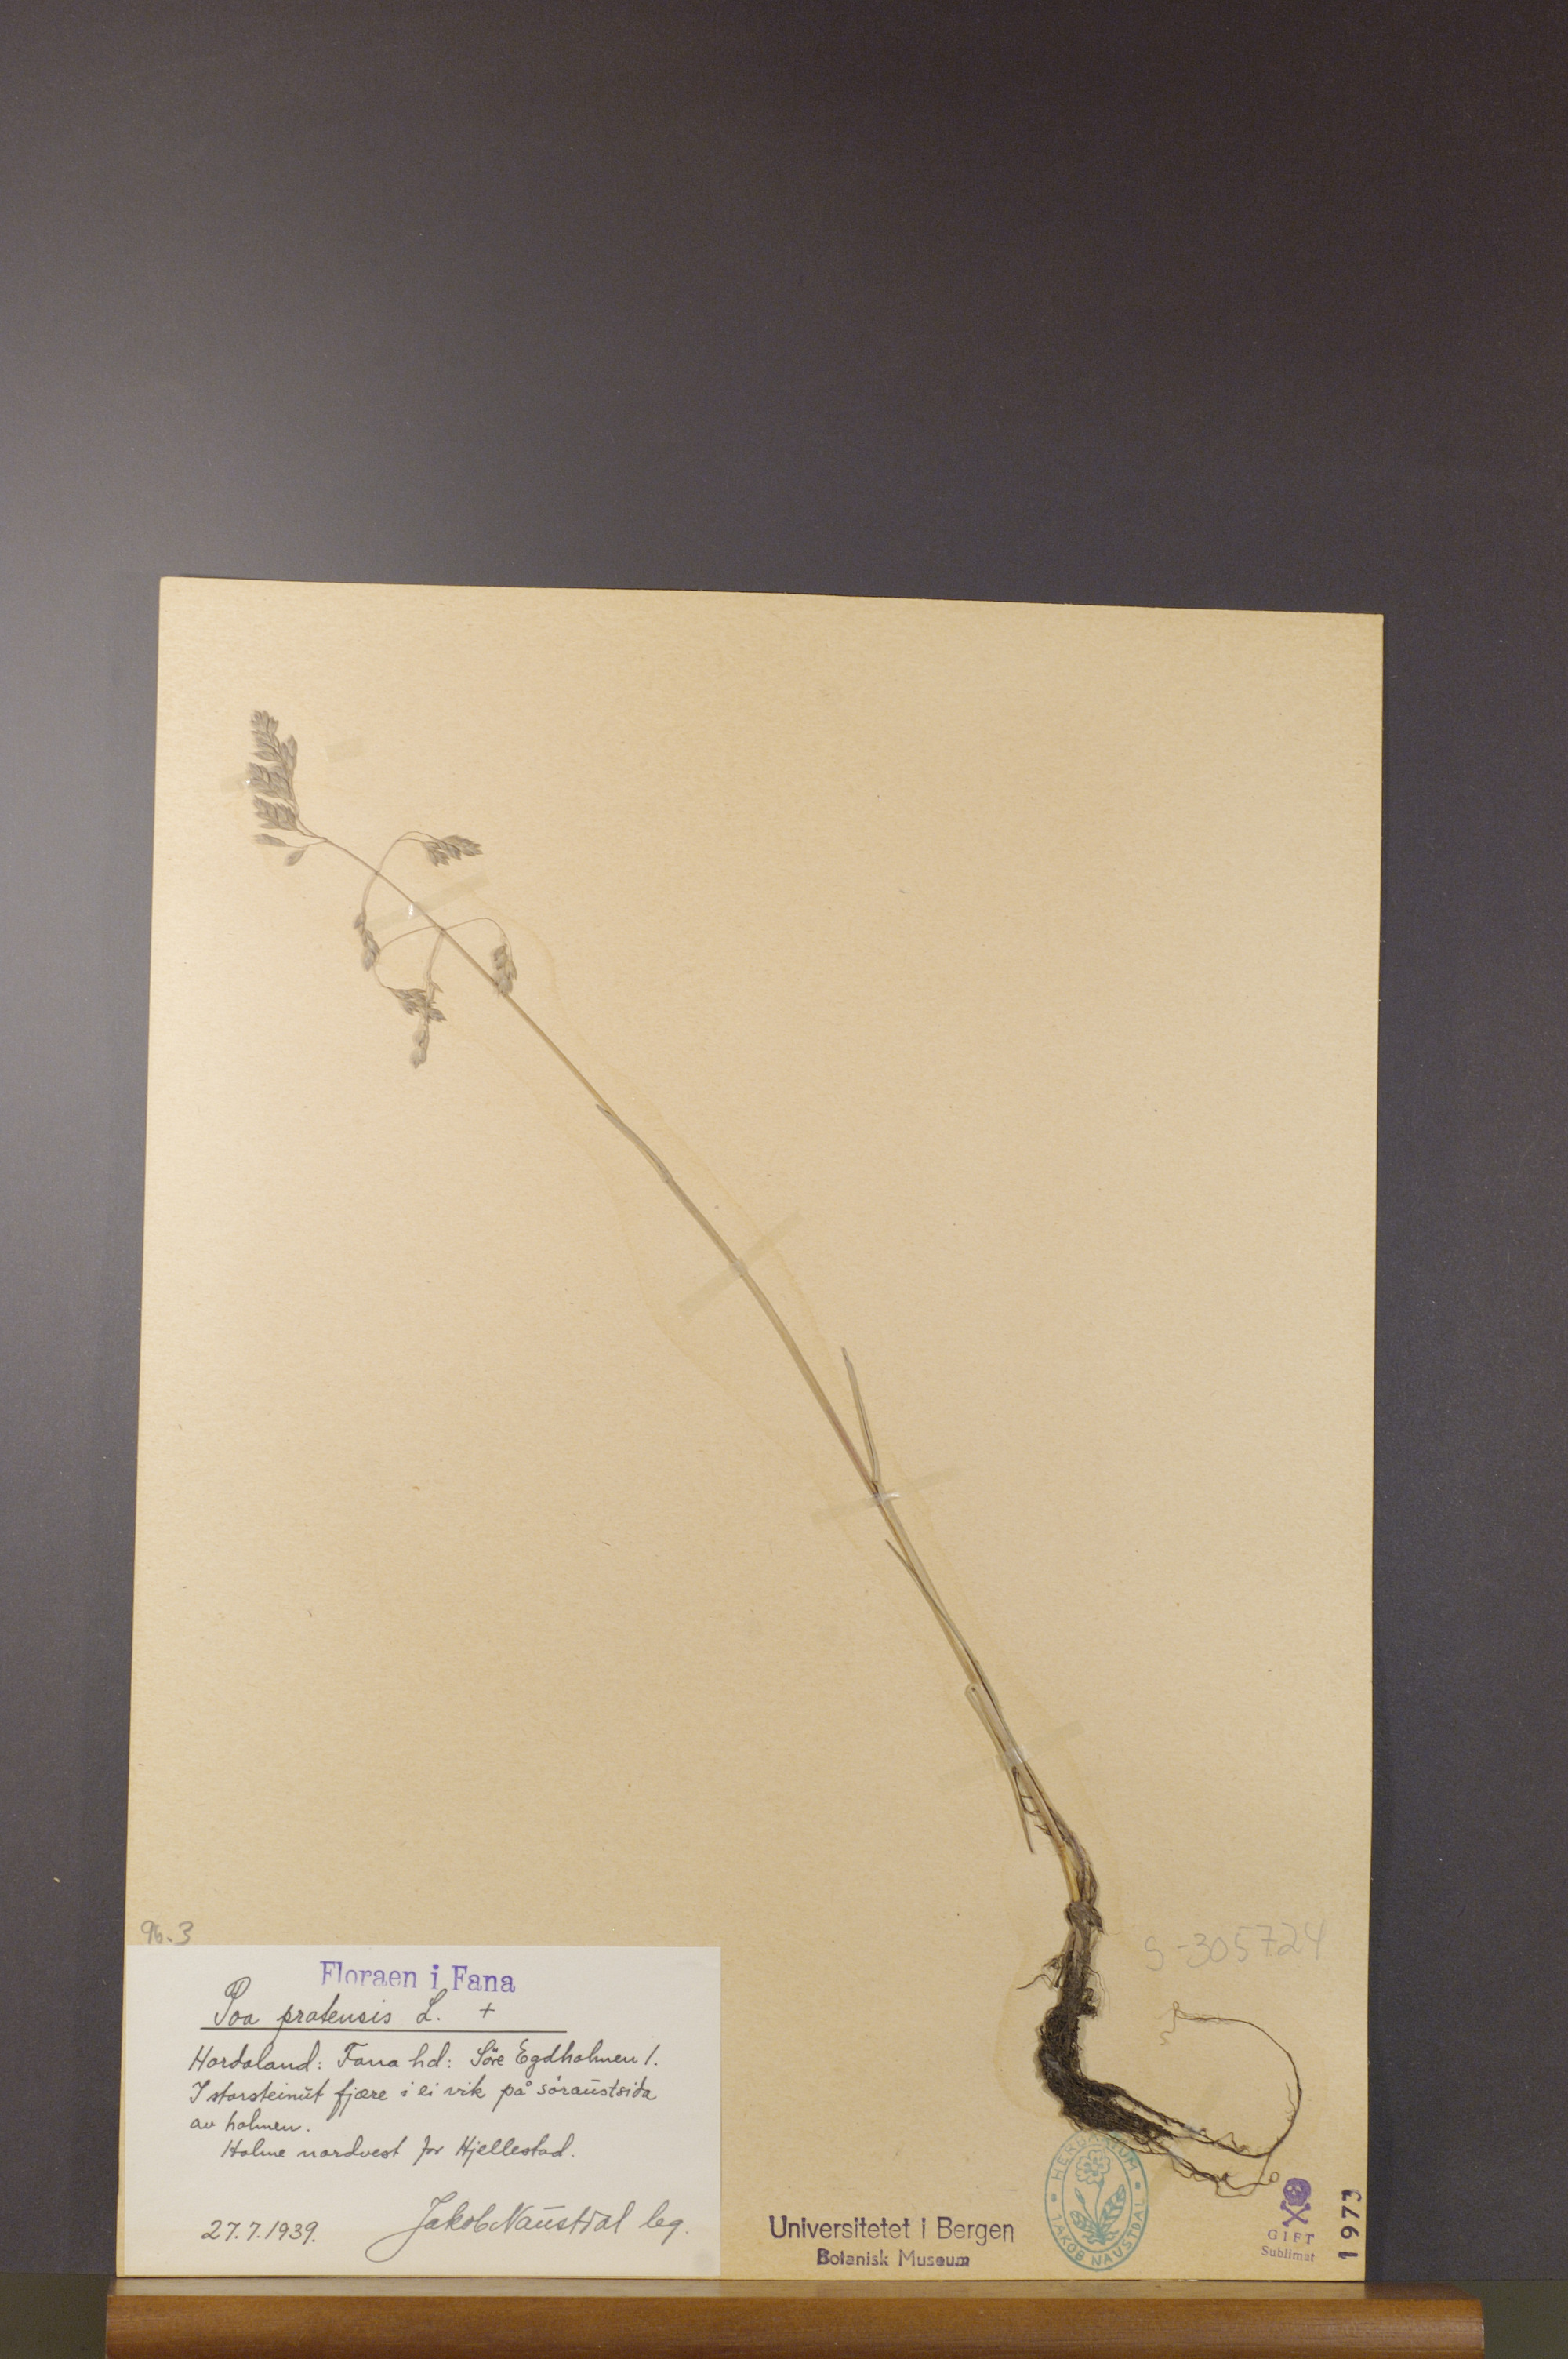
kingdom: Plantae
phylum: Tracheophyta
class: Liliopsida
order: Poales
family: Poaceae
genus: Poa
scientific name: Poa pratensis
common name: Kentucky bluegrass
